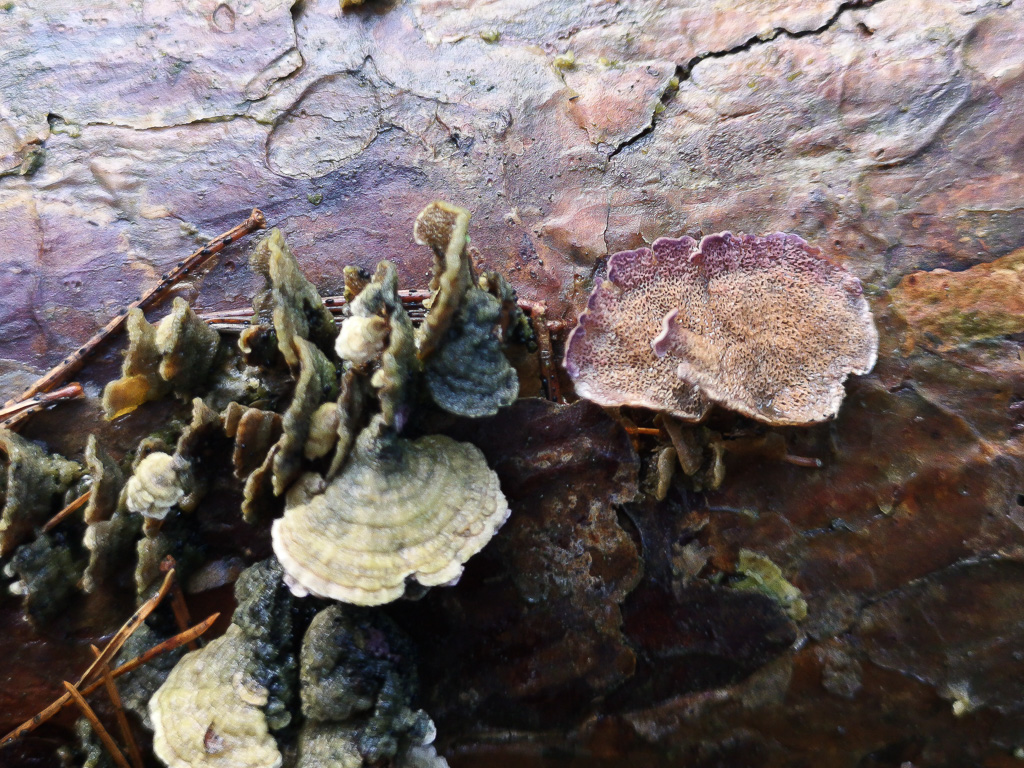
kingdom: Fungi
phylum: Basidiomycota
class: Agaricomycetes
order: Hymenochaetales
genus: Trichaptum
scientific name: Trichaptum abietinum
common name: almindelig violporesvamp
